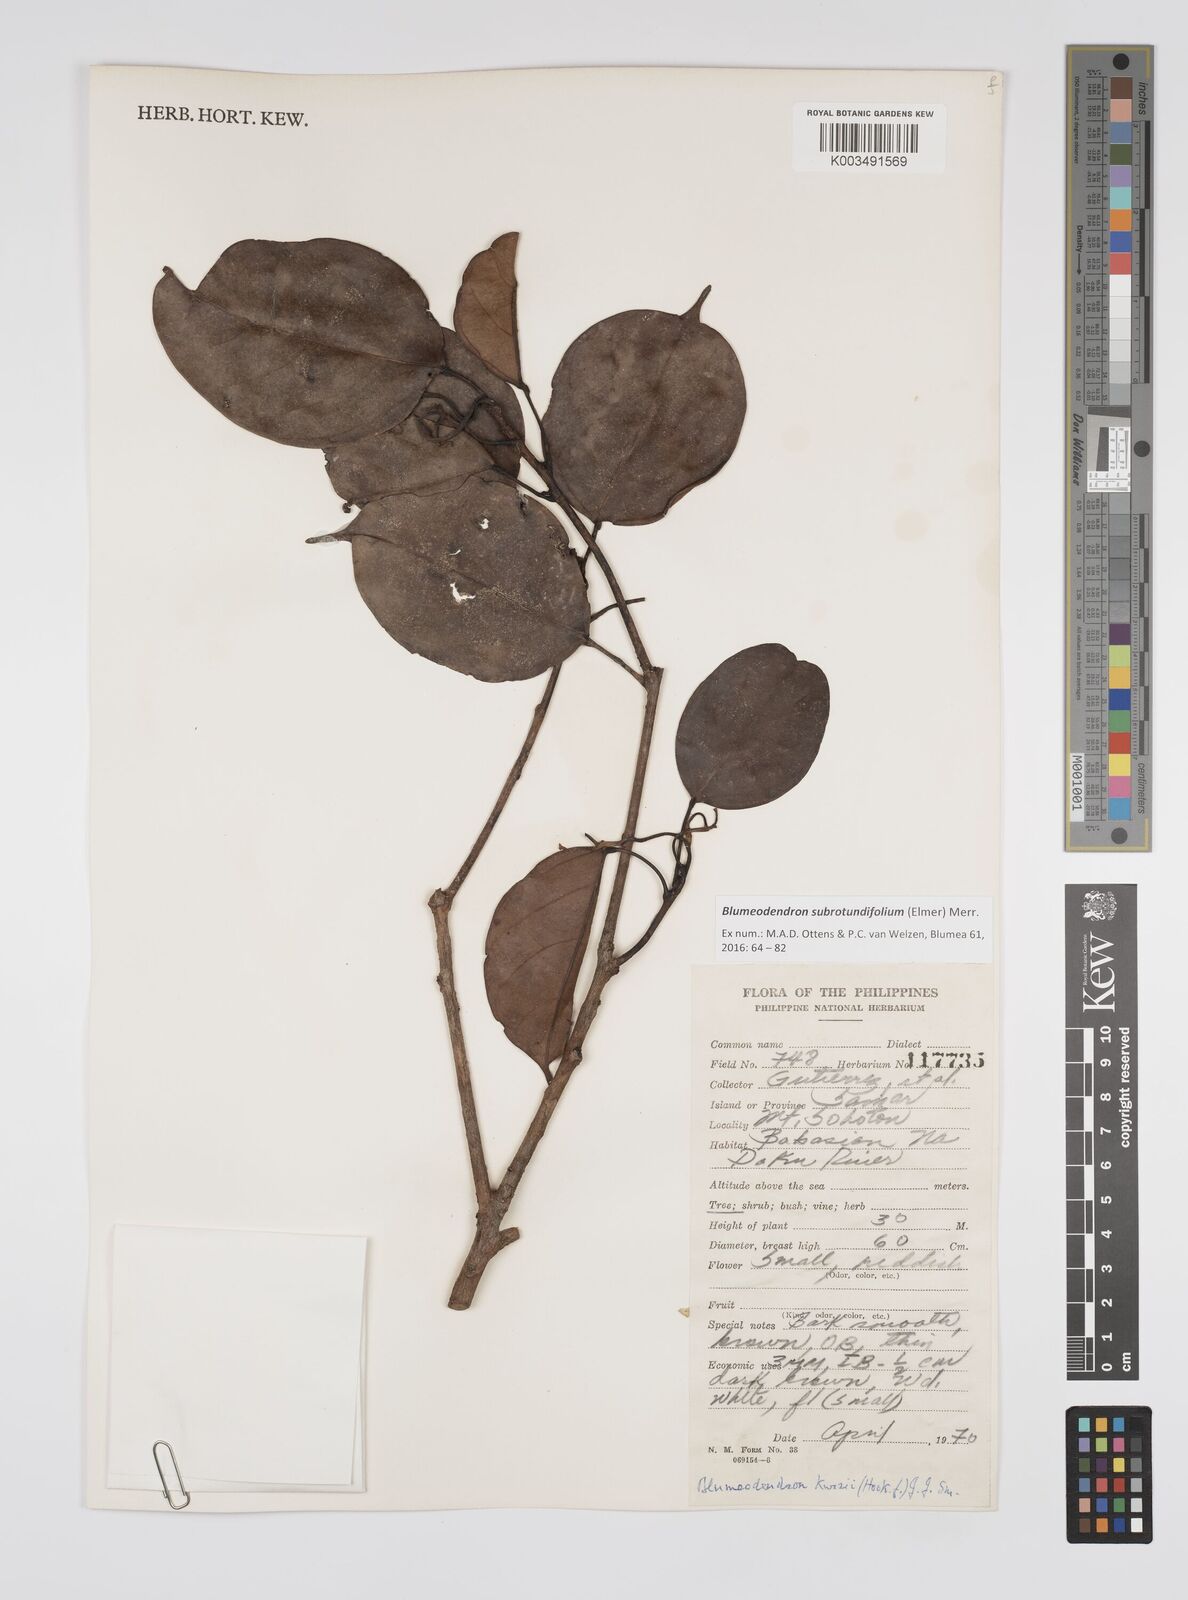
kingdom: Plantae
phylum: Tracheophyta
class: Magnoliopsida
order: Malpighiales
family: Euphorbiaceae
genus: Blumeodendron
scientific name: Blumeodendron subrotundifolium
